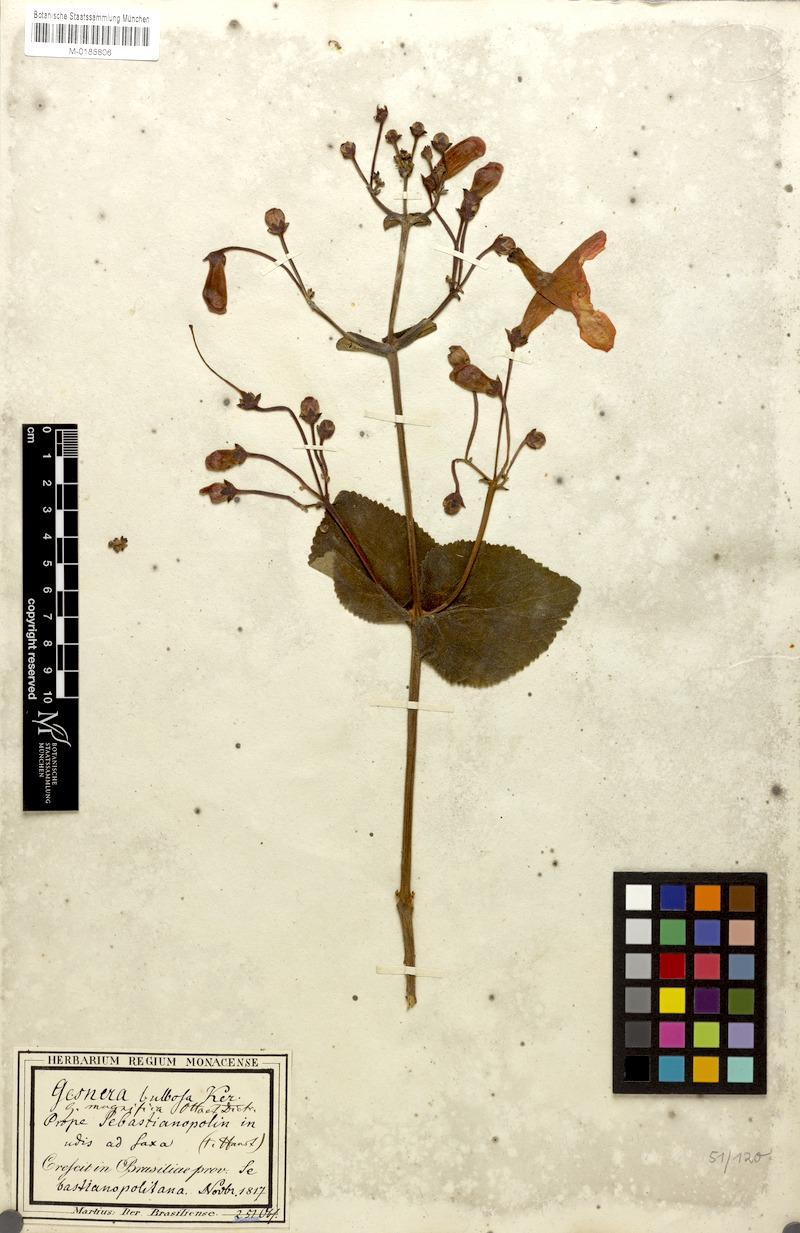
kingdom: Plantae
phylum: Tracheophyta
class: Magnoliopsida
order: Lamiales
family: Gesneriaceae
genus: Sinningia
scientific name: Sinningia magnifica
